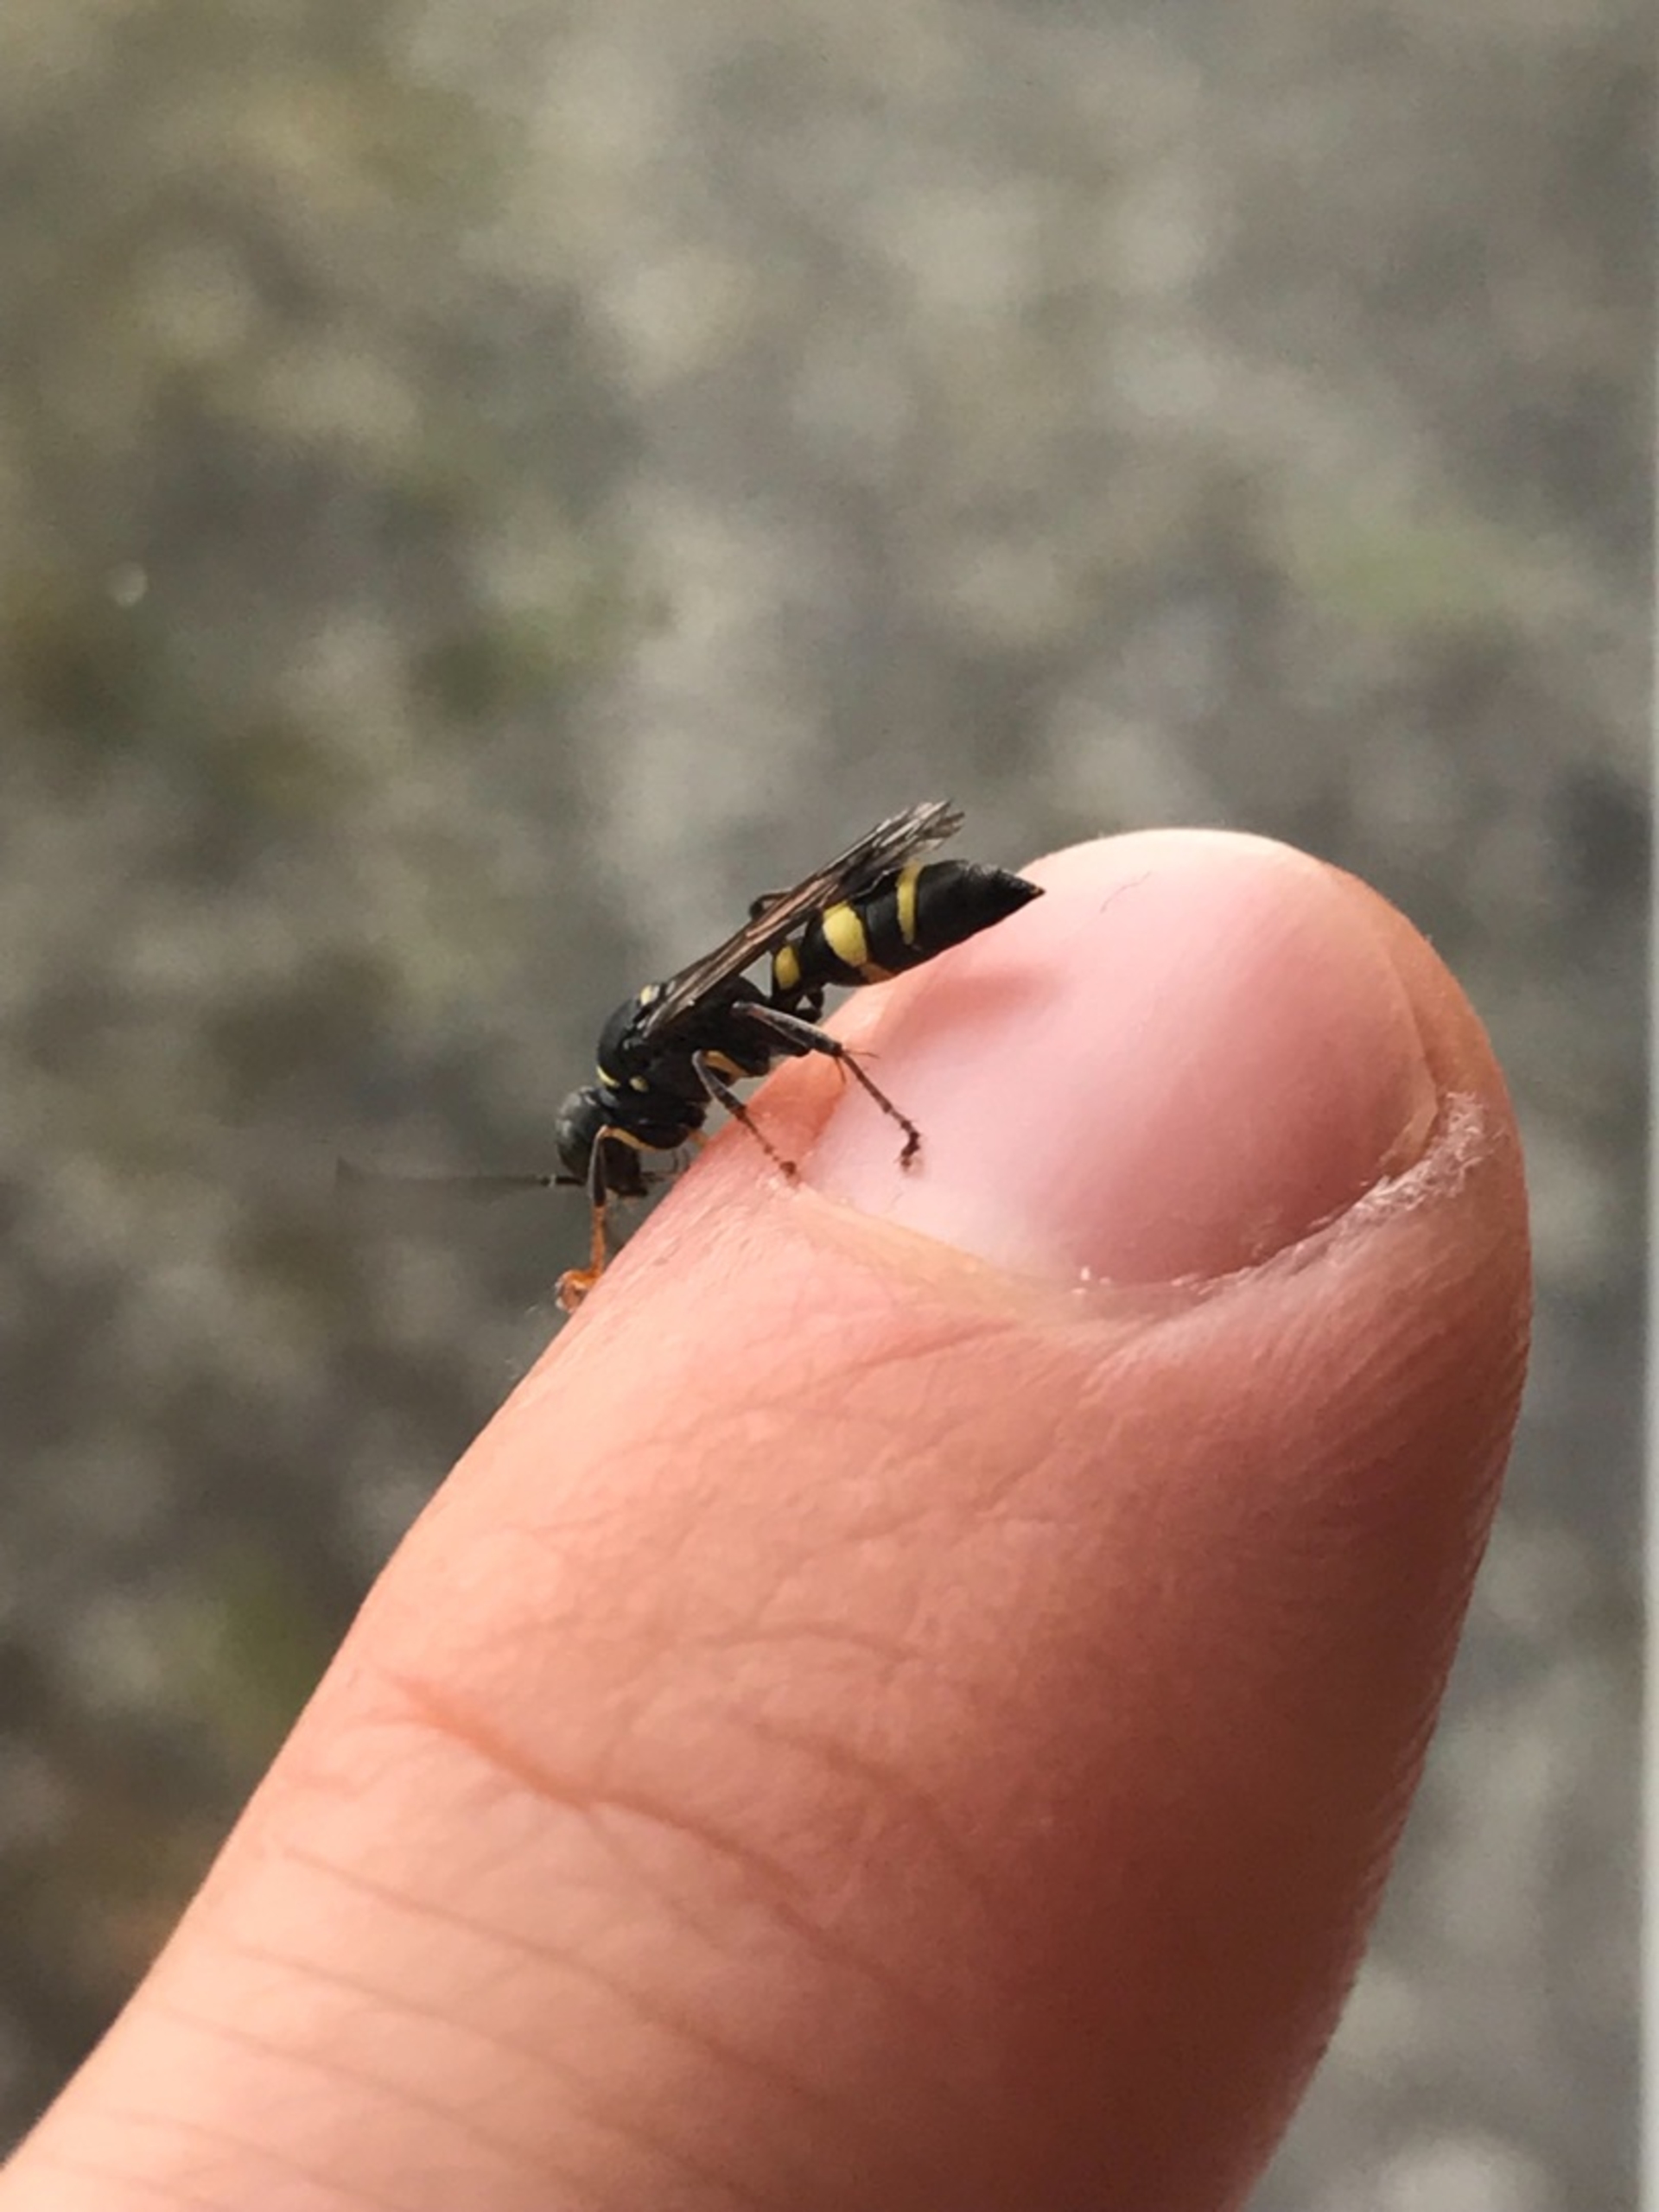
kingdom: Animalia
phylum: Arthropoda
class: Insecta
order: Hymenoptera
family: Crabronidae
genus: Lestiphorus
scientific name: Lestiphorus bicinctus
